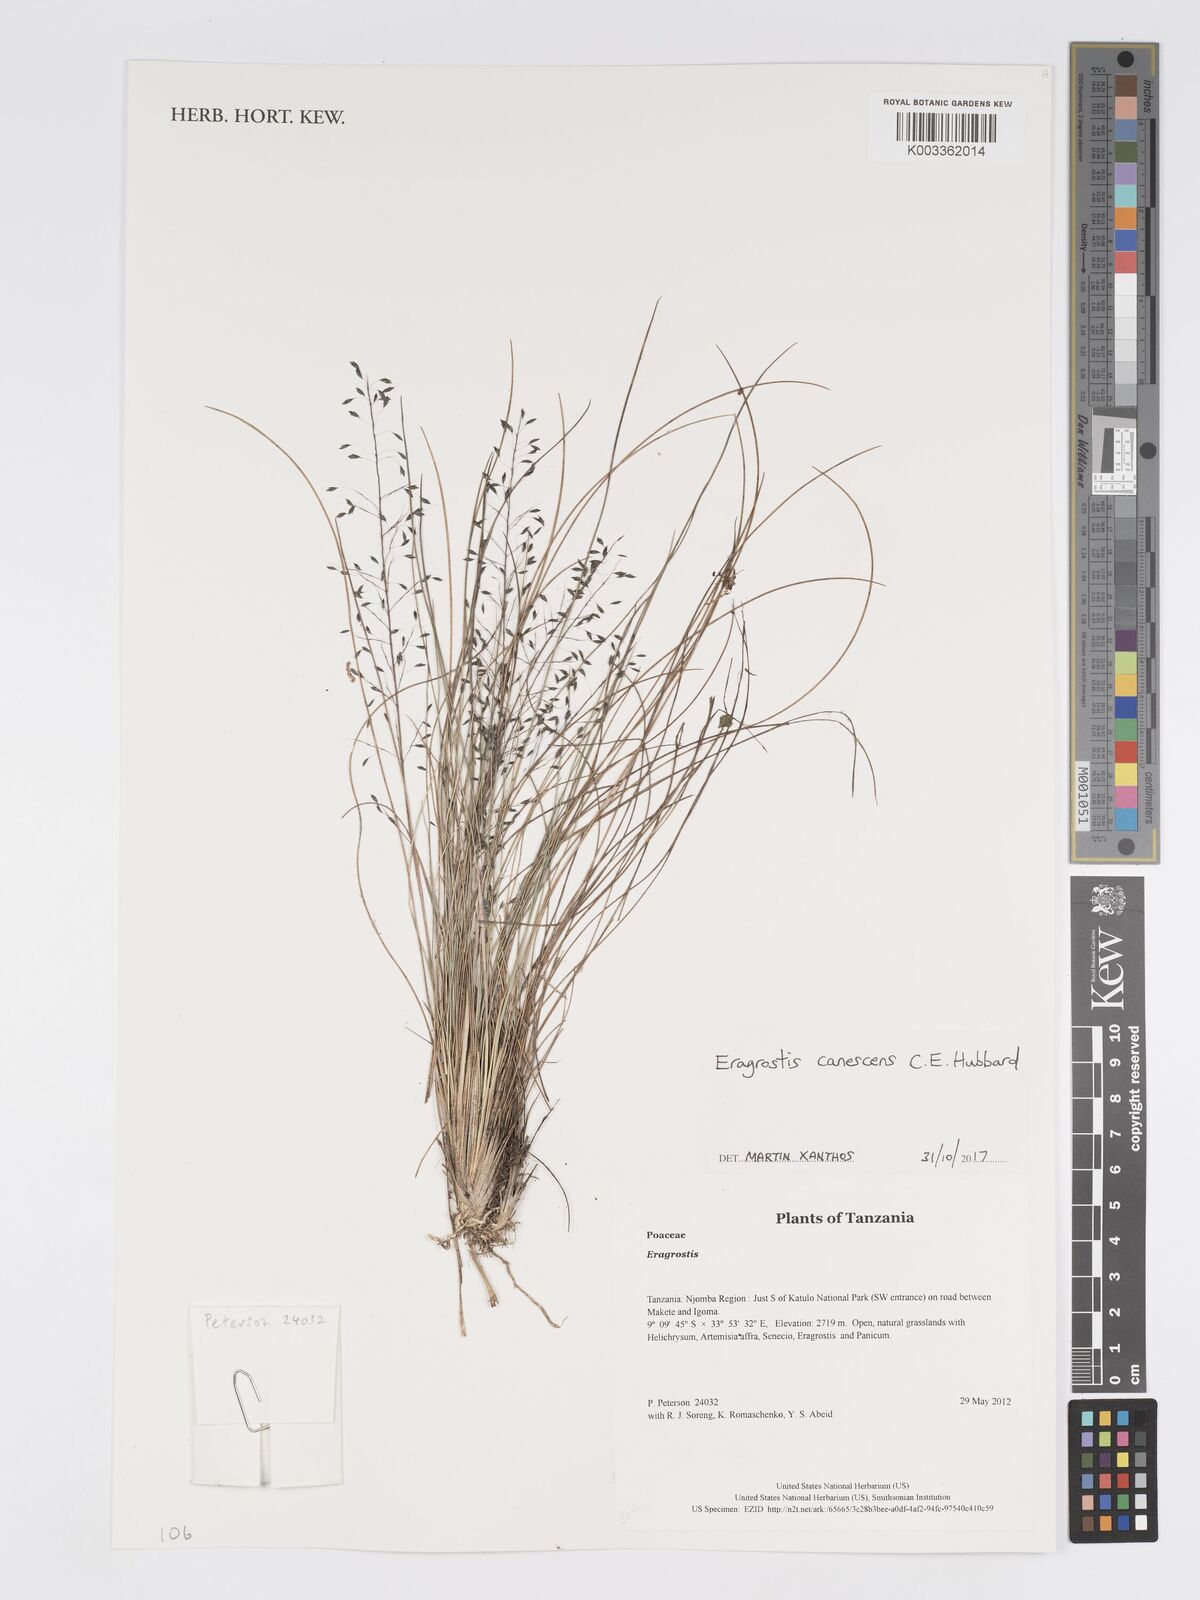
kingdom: Plantae
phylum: Tracheophyta
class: Liliopsida
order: Poales
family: Poaceae
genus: Eragrostis
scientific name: Eragrostis canescens
